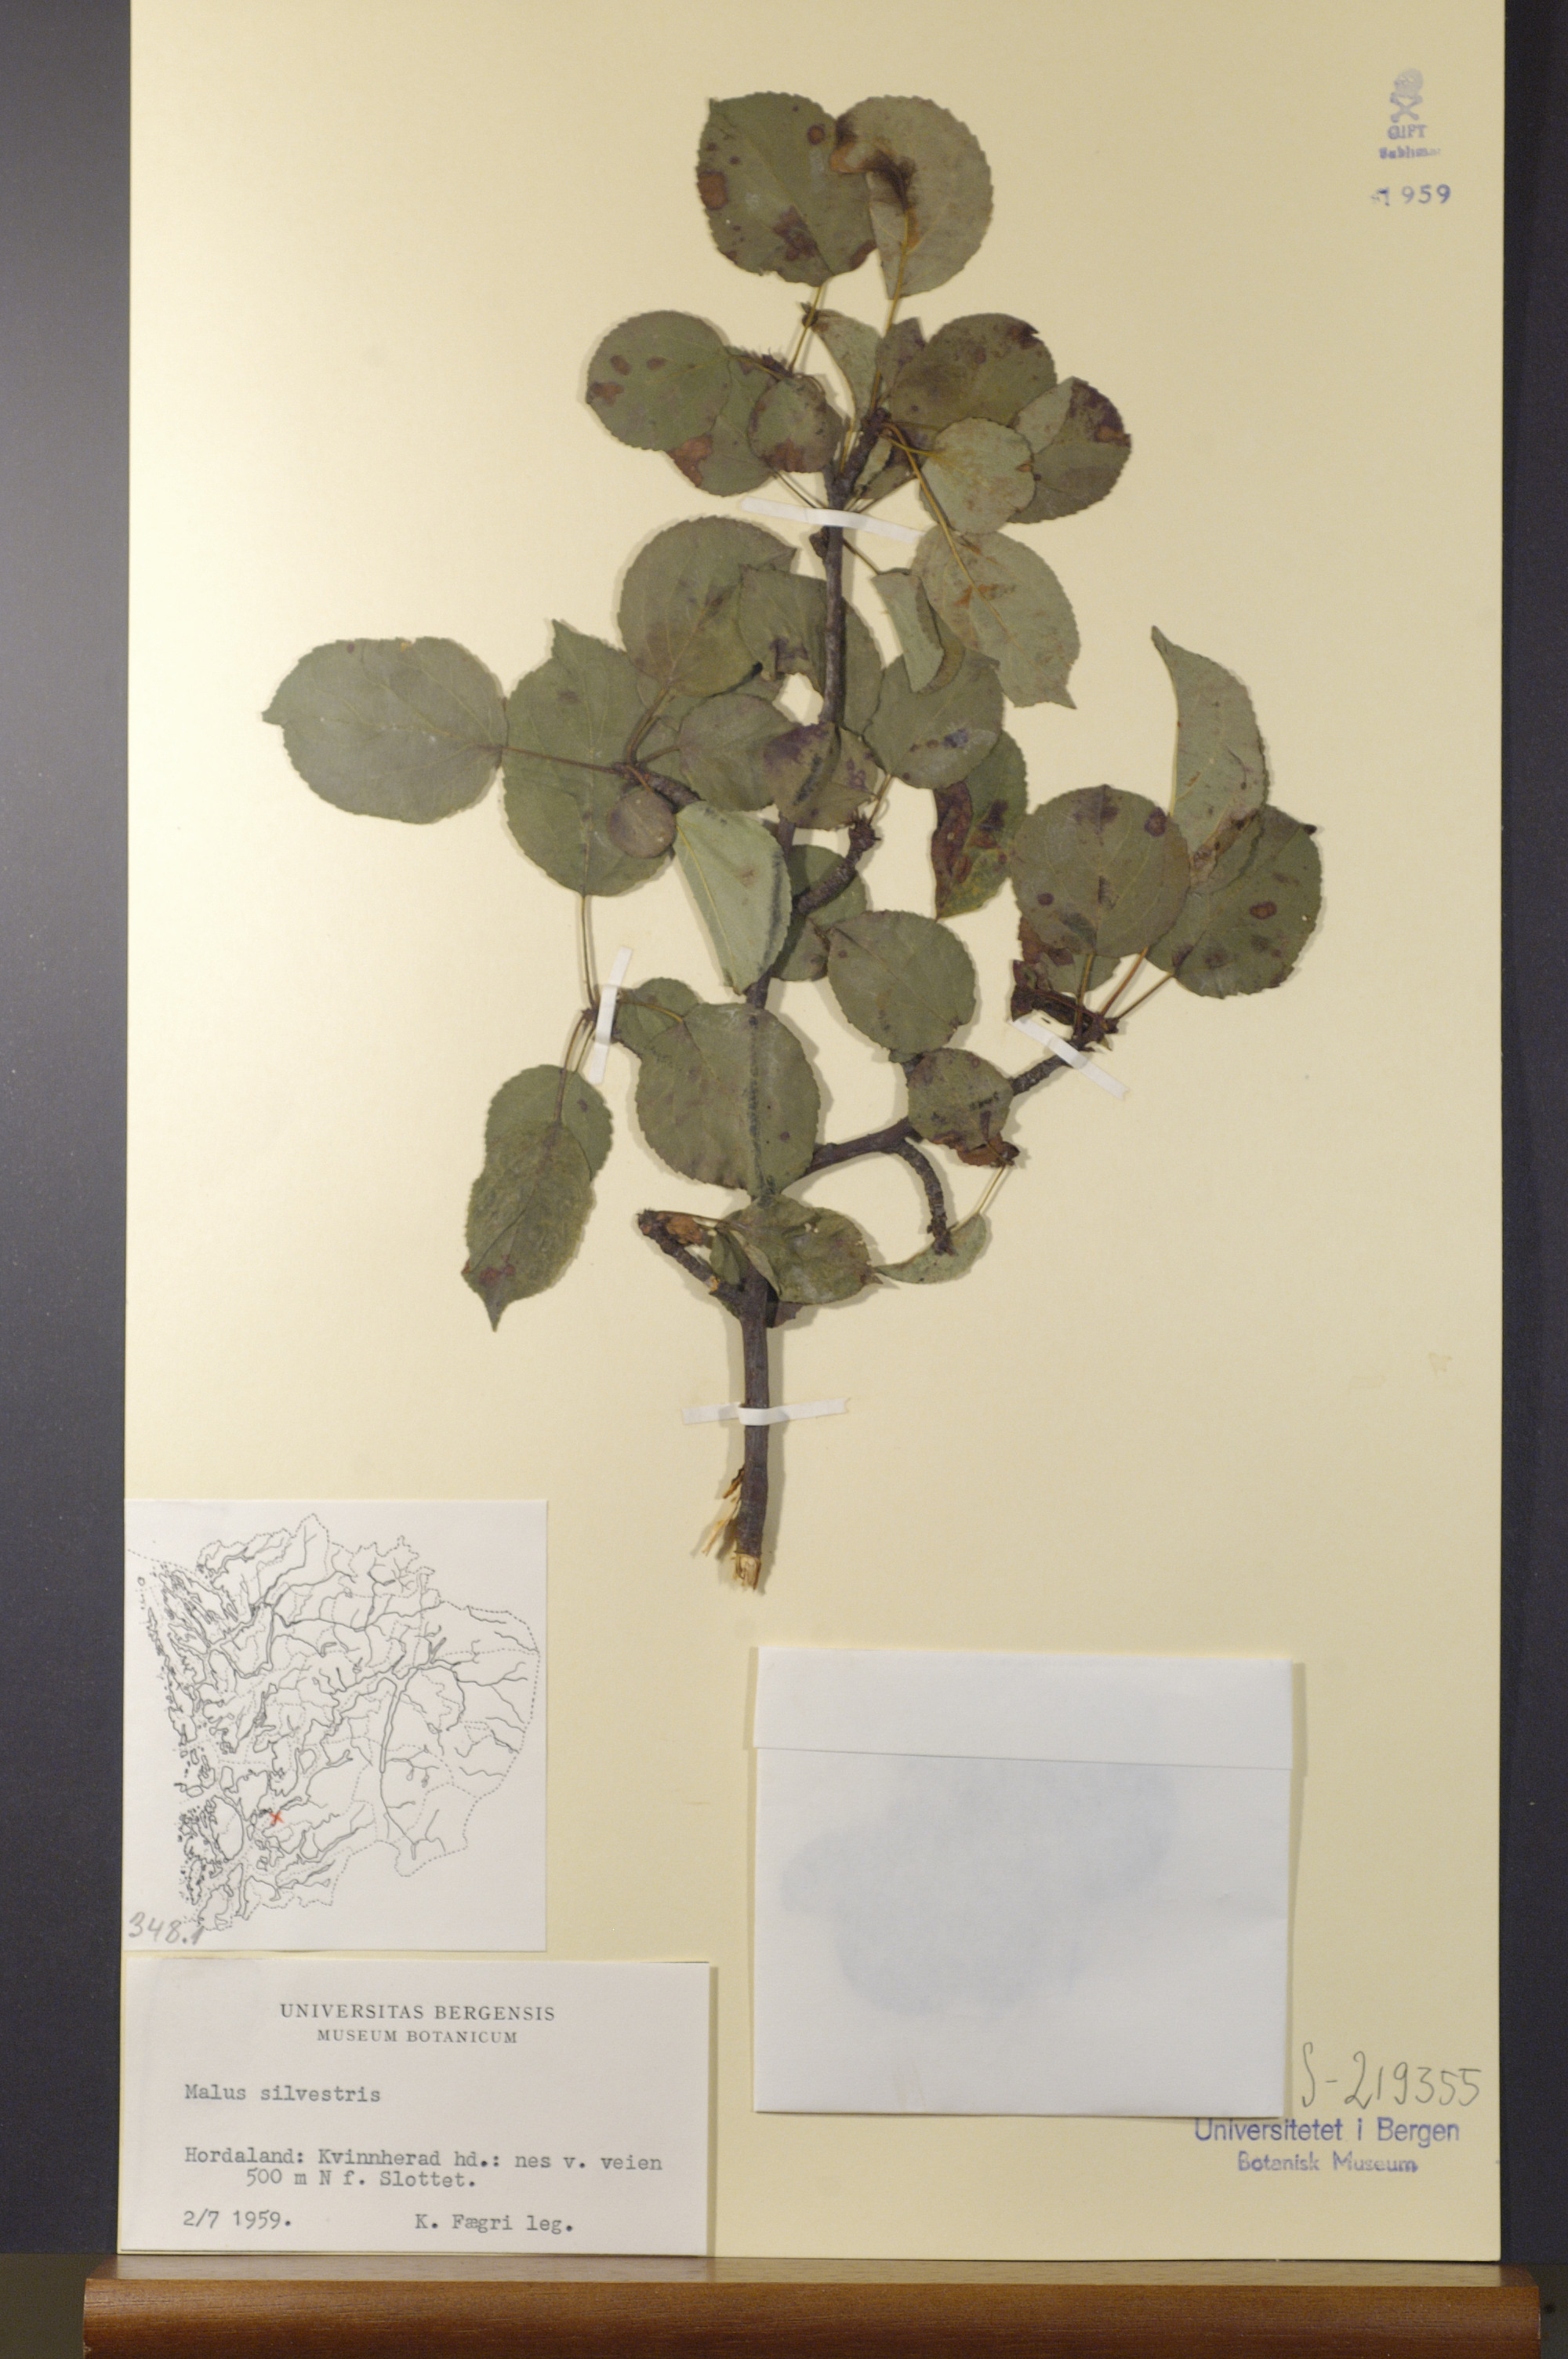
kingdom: Plantae
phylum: Tracheophyta
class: Magnoliopsida
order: Rosales
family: Rosaceae
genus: Malus
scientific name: Malus sylvestris
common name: Crab apple
